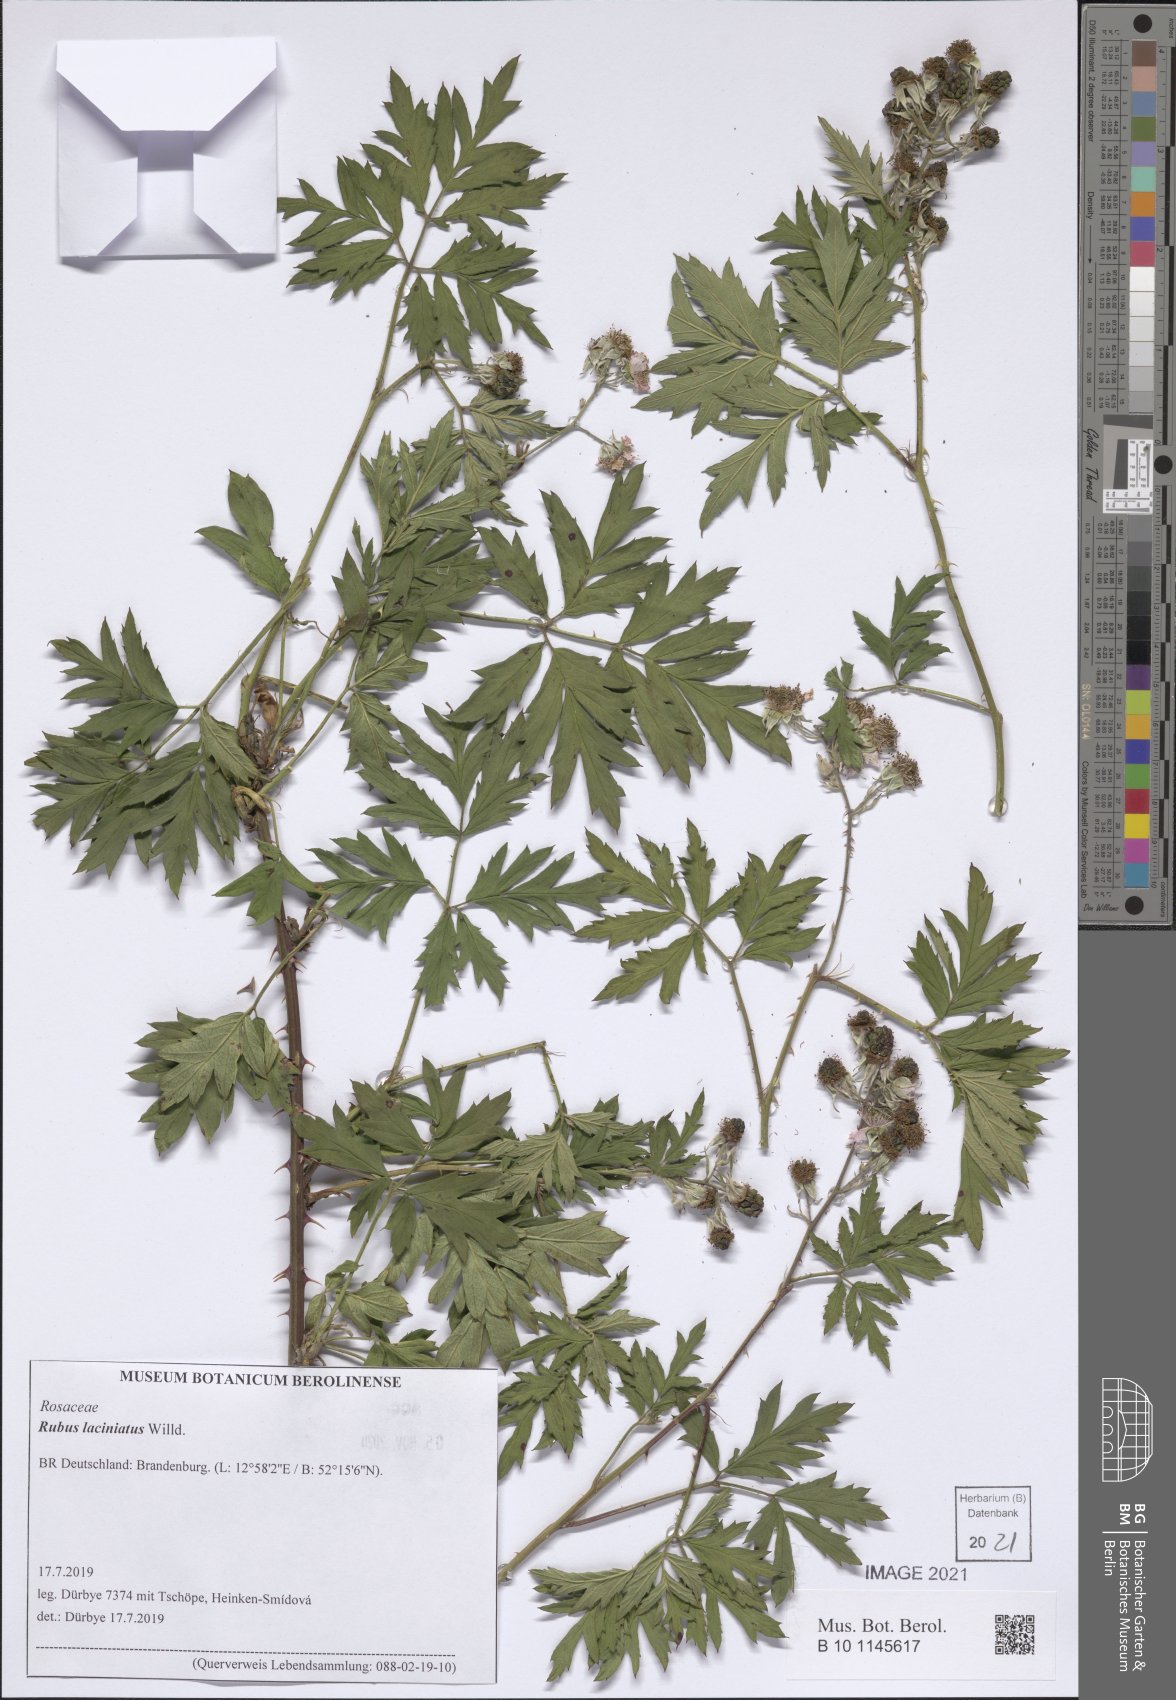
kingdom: Plantae
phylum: Tracheophyta
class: Magnoliopsida
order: Rosales
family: Rosaceae
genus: Rubus
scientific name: Rubus laciniatus
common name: Evergreen blackberry
